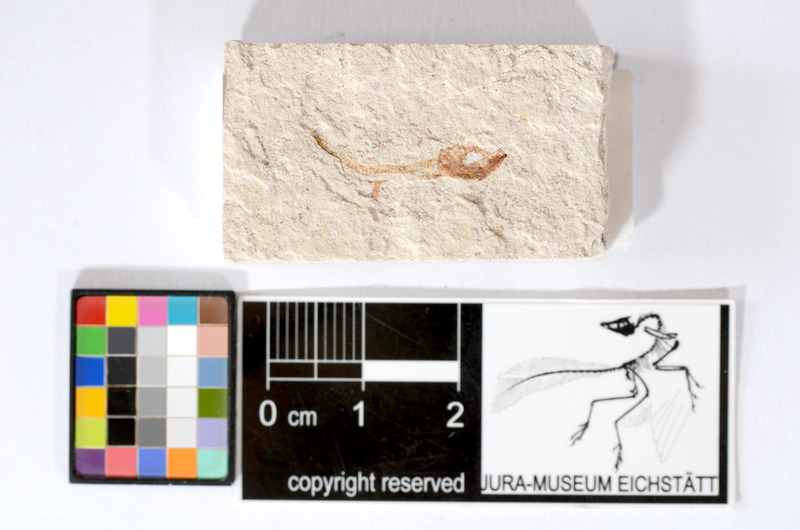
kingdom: Animalia
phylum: Chordata
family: Ascalaboidae
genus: Tharsis
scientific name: Tharsis dubius
